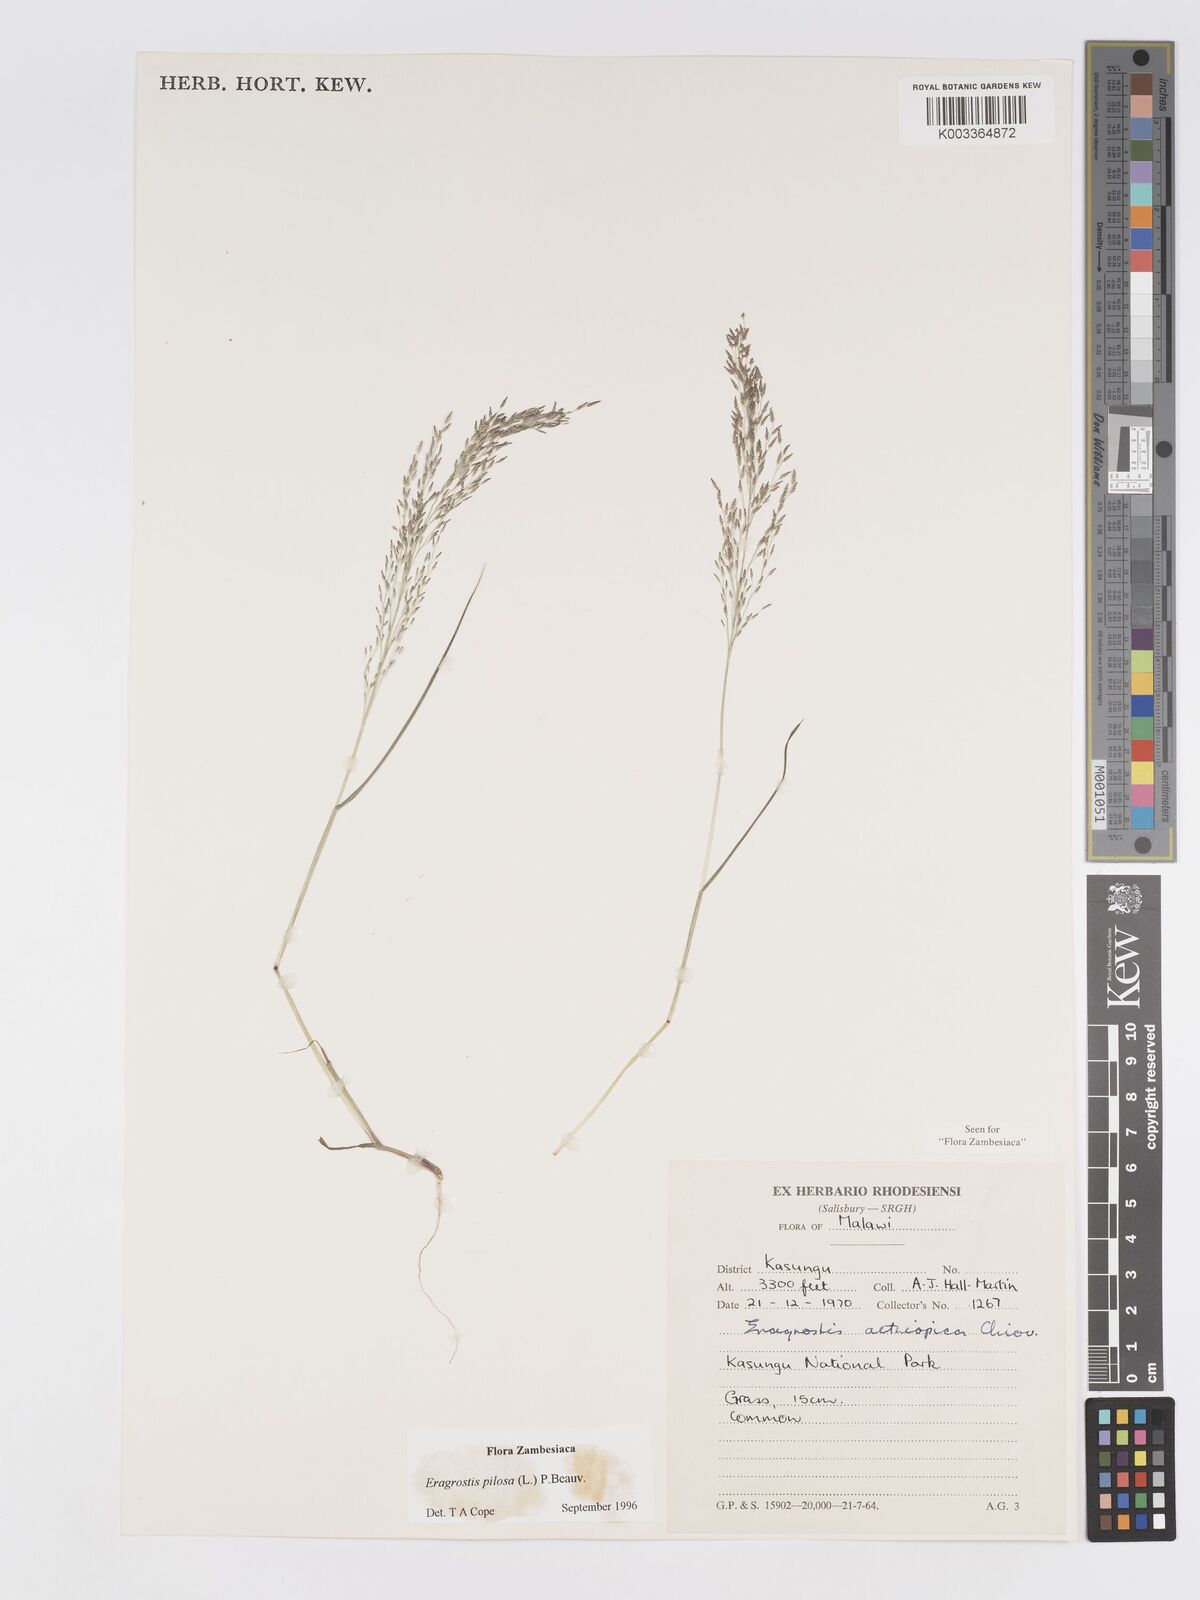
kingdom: Plantae
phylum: Tracheophyta
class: Liliopsida
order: Poales
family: Poaceae
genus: Eragrostis
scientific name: Eragrostis pilosa
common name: Indian lovegrass
